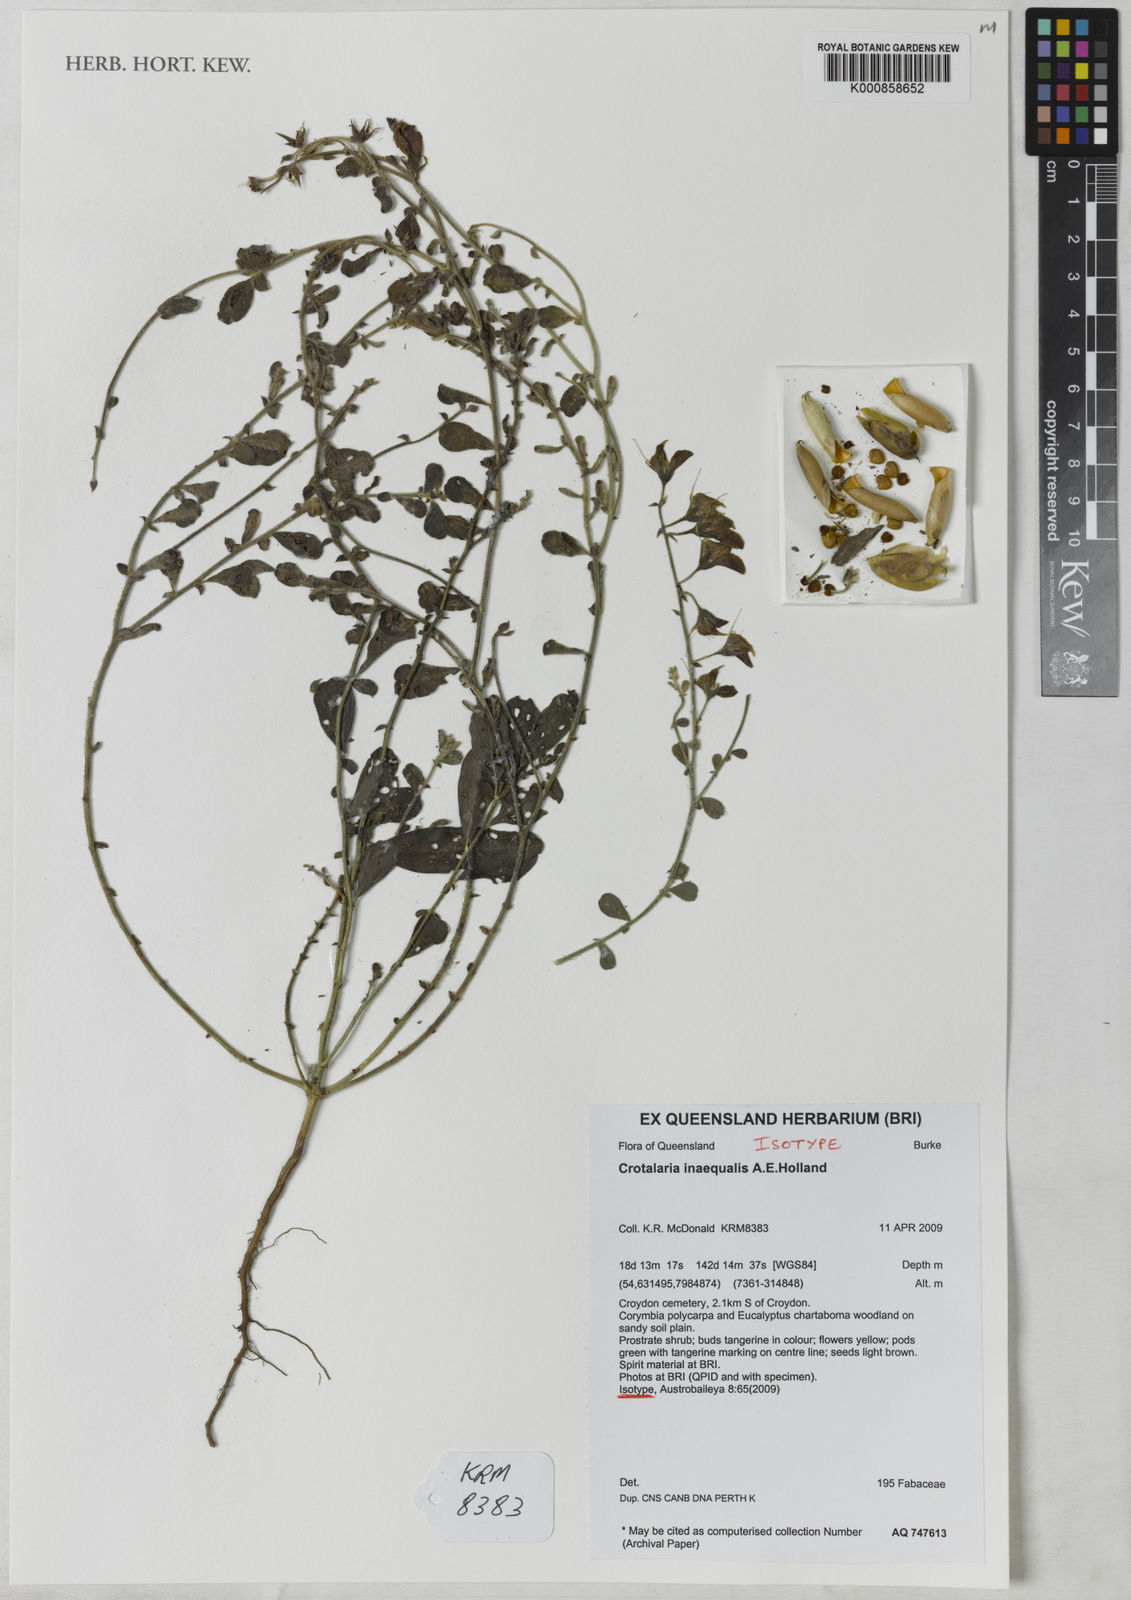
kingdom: Plantae
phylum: Tracheophyta
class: Magnoliopsida
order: Fabales
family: Fabaceae
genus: Crotalaria
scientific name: Crotalaria
